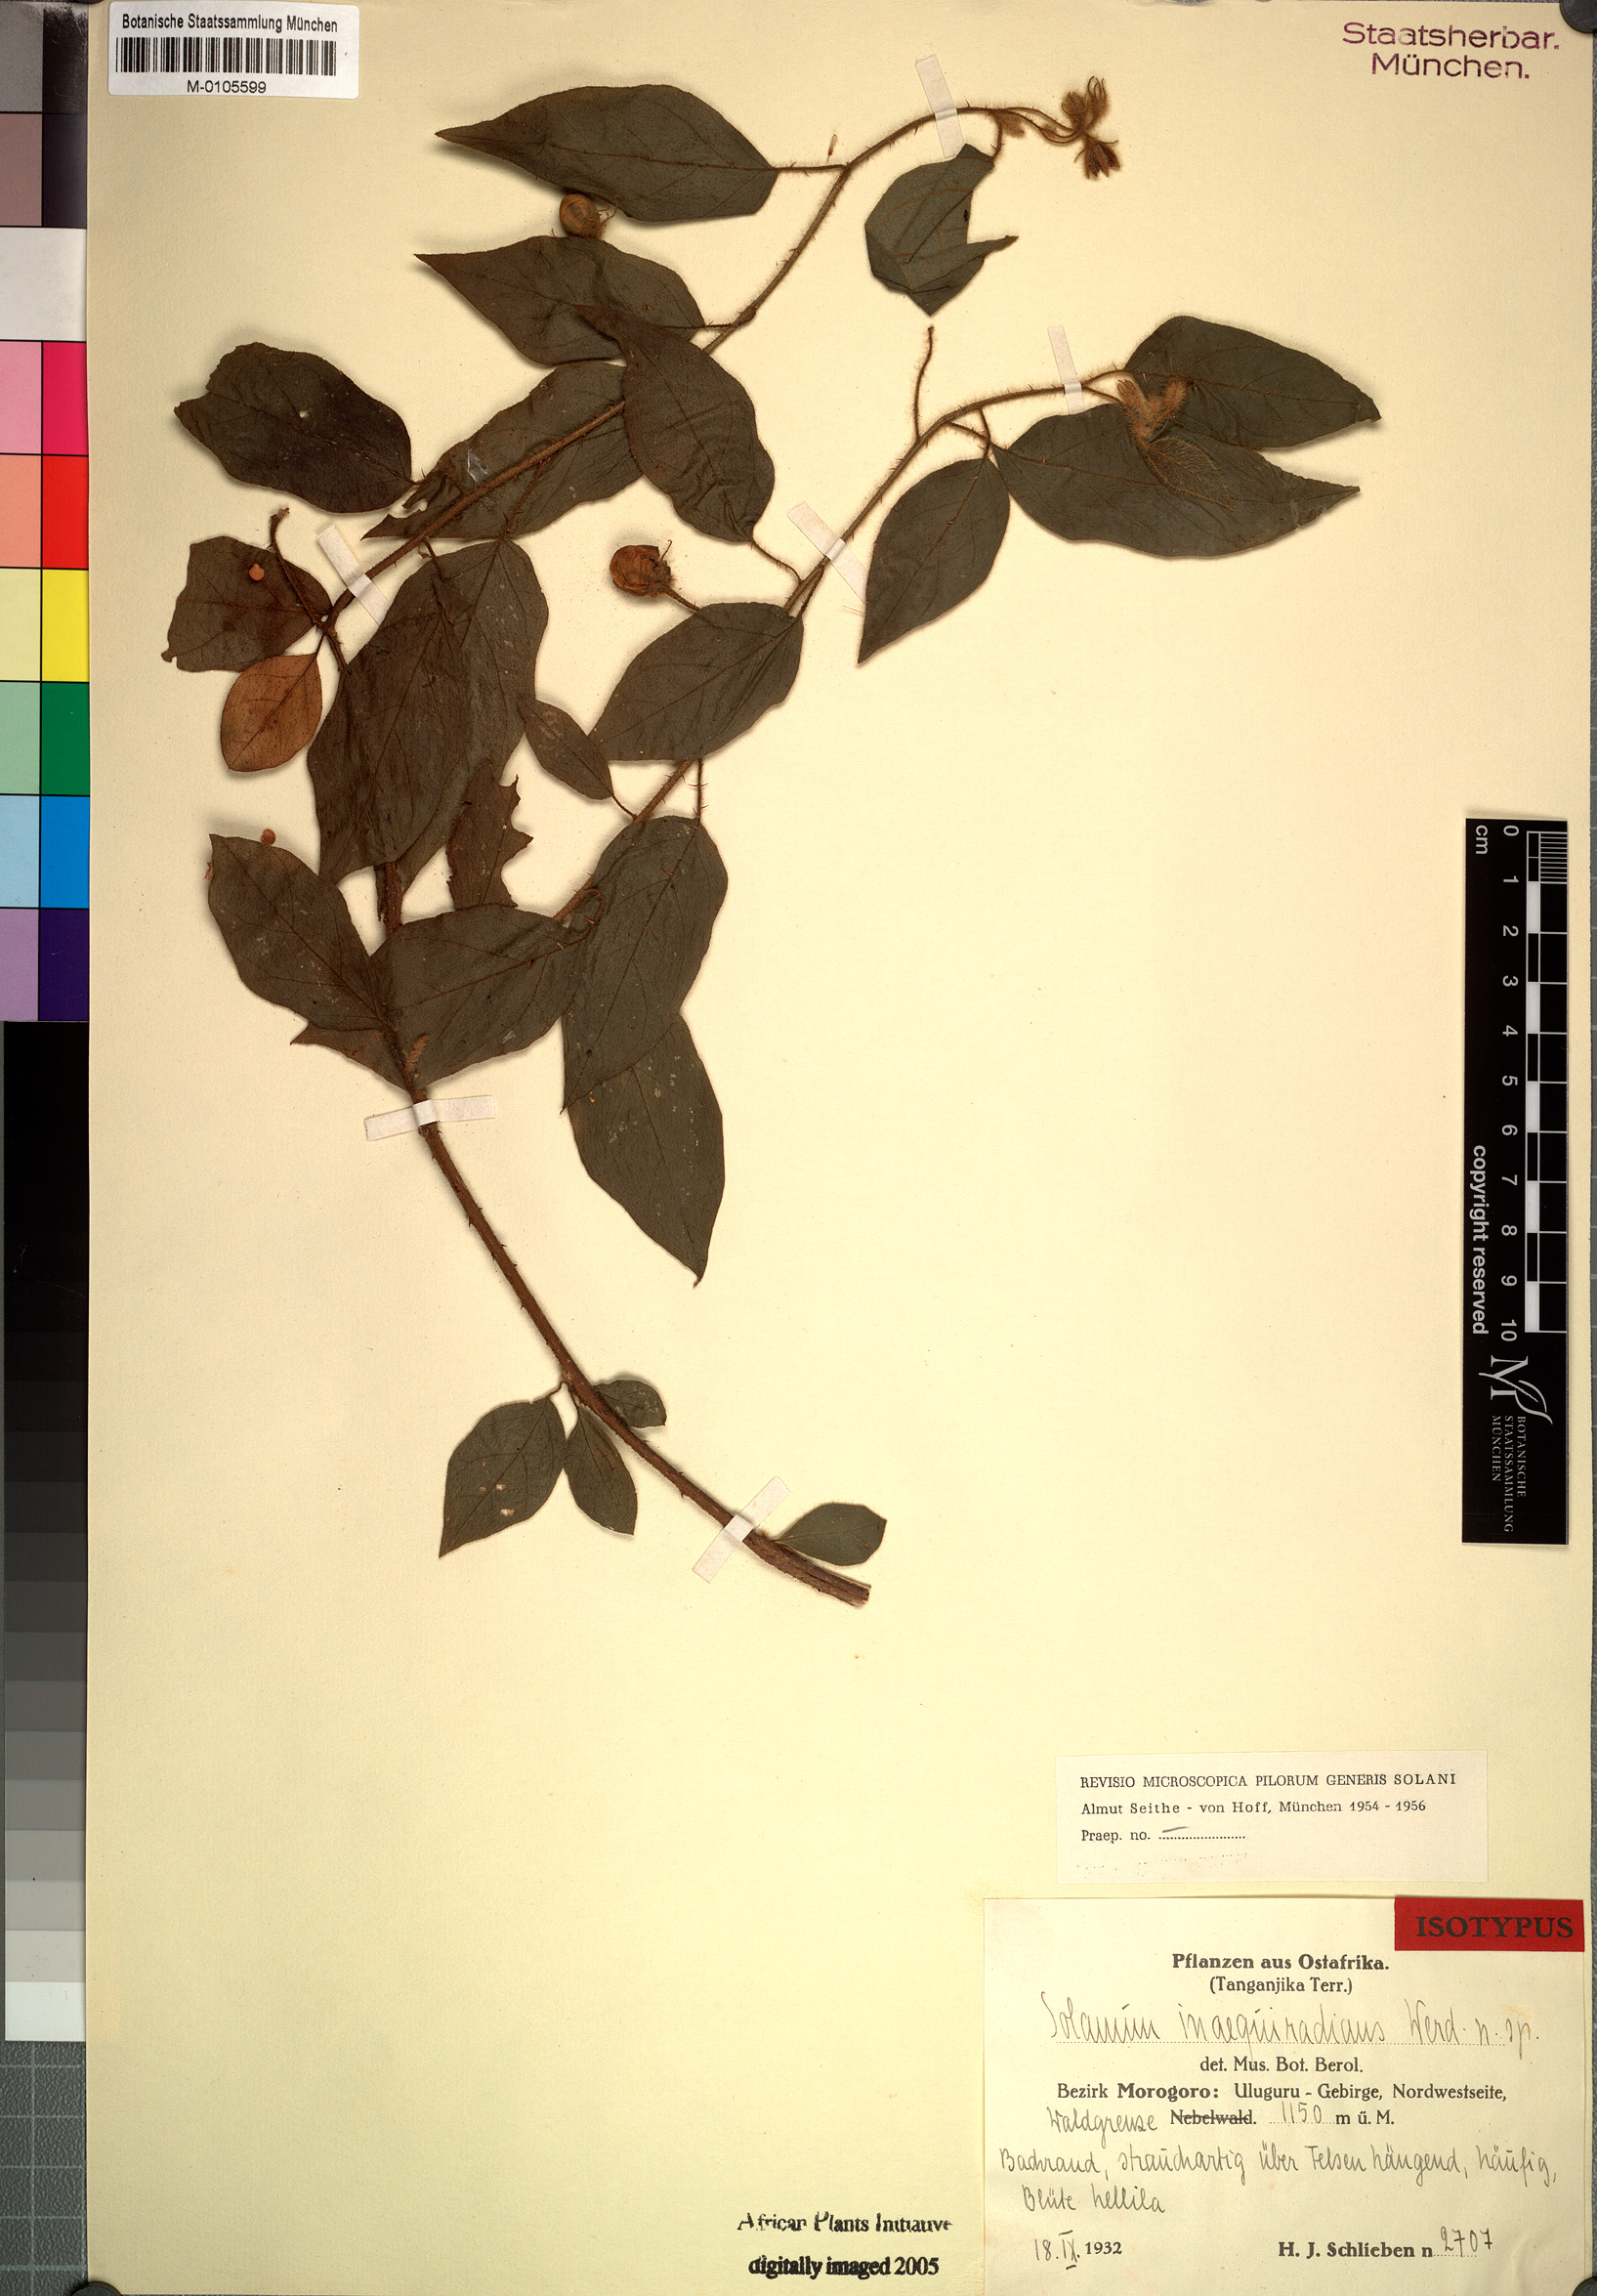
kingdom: Plantae
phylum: Tracheophyta
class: Magnoliopsida
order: Solanales
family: Solanaceae
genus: Solanum
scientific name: Solanum inaequiradians
